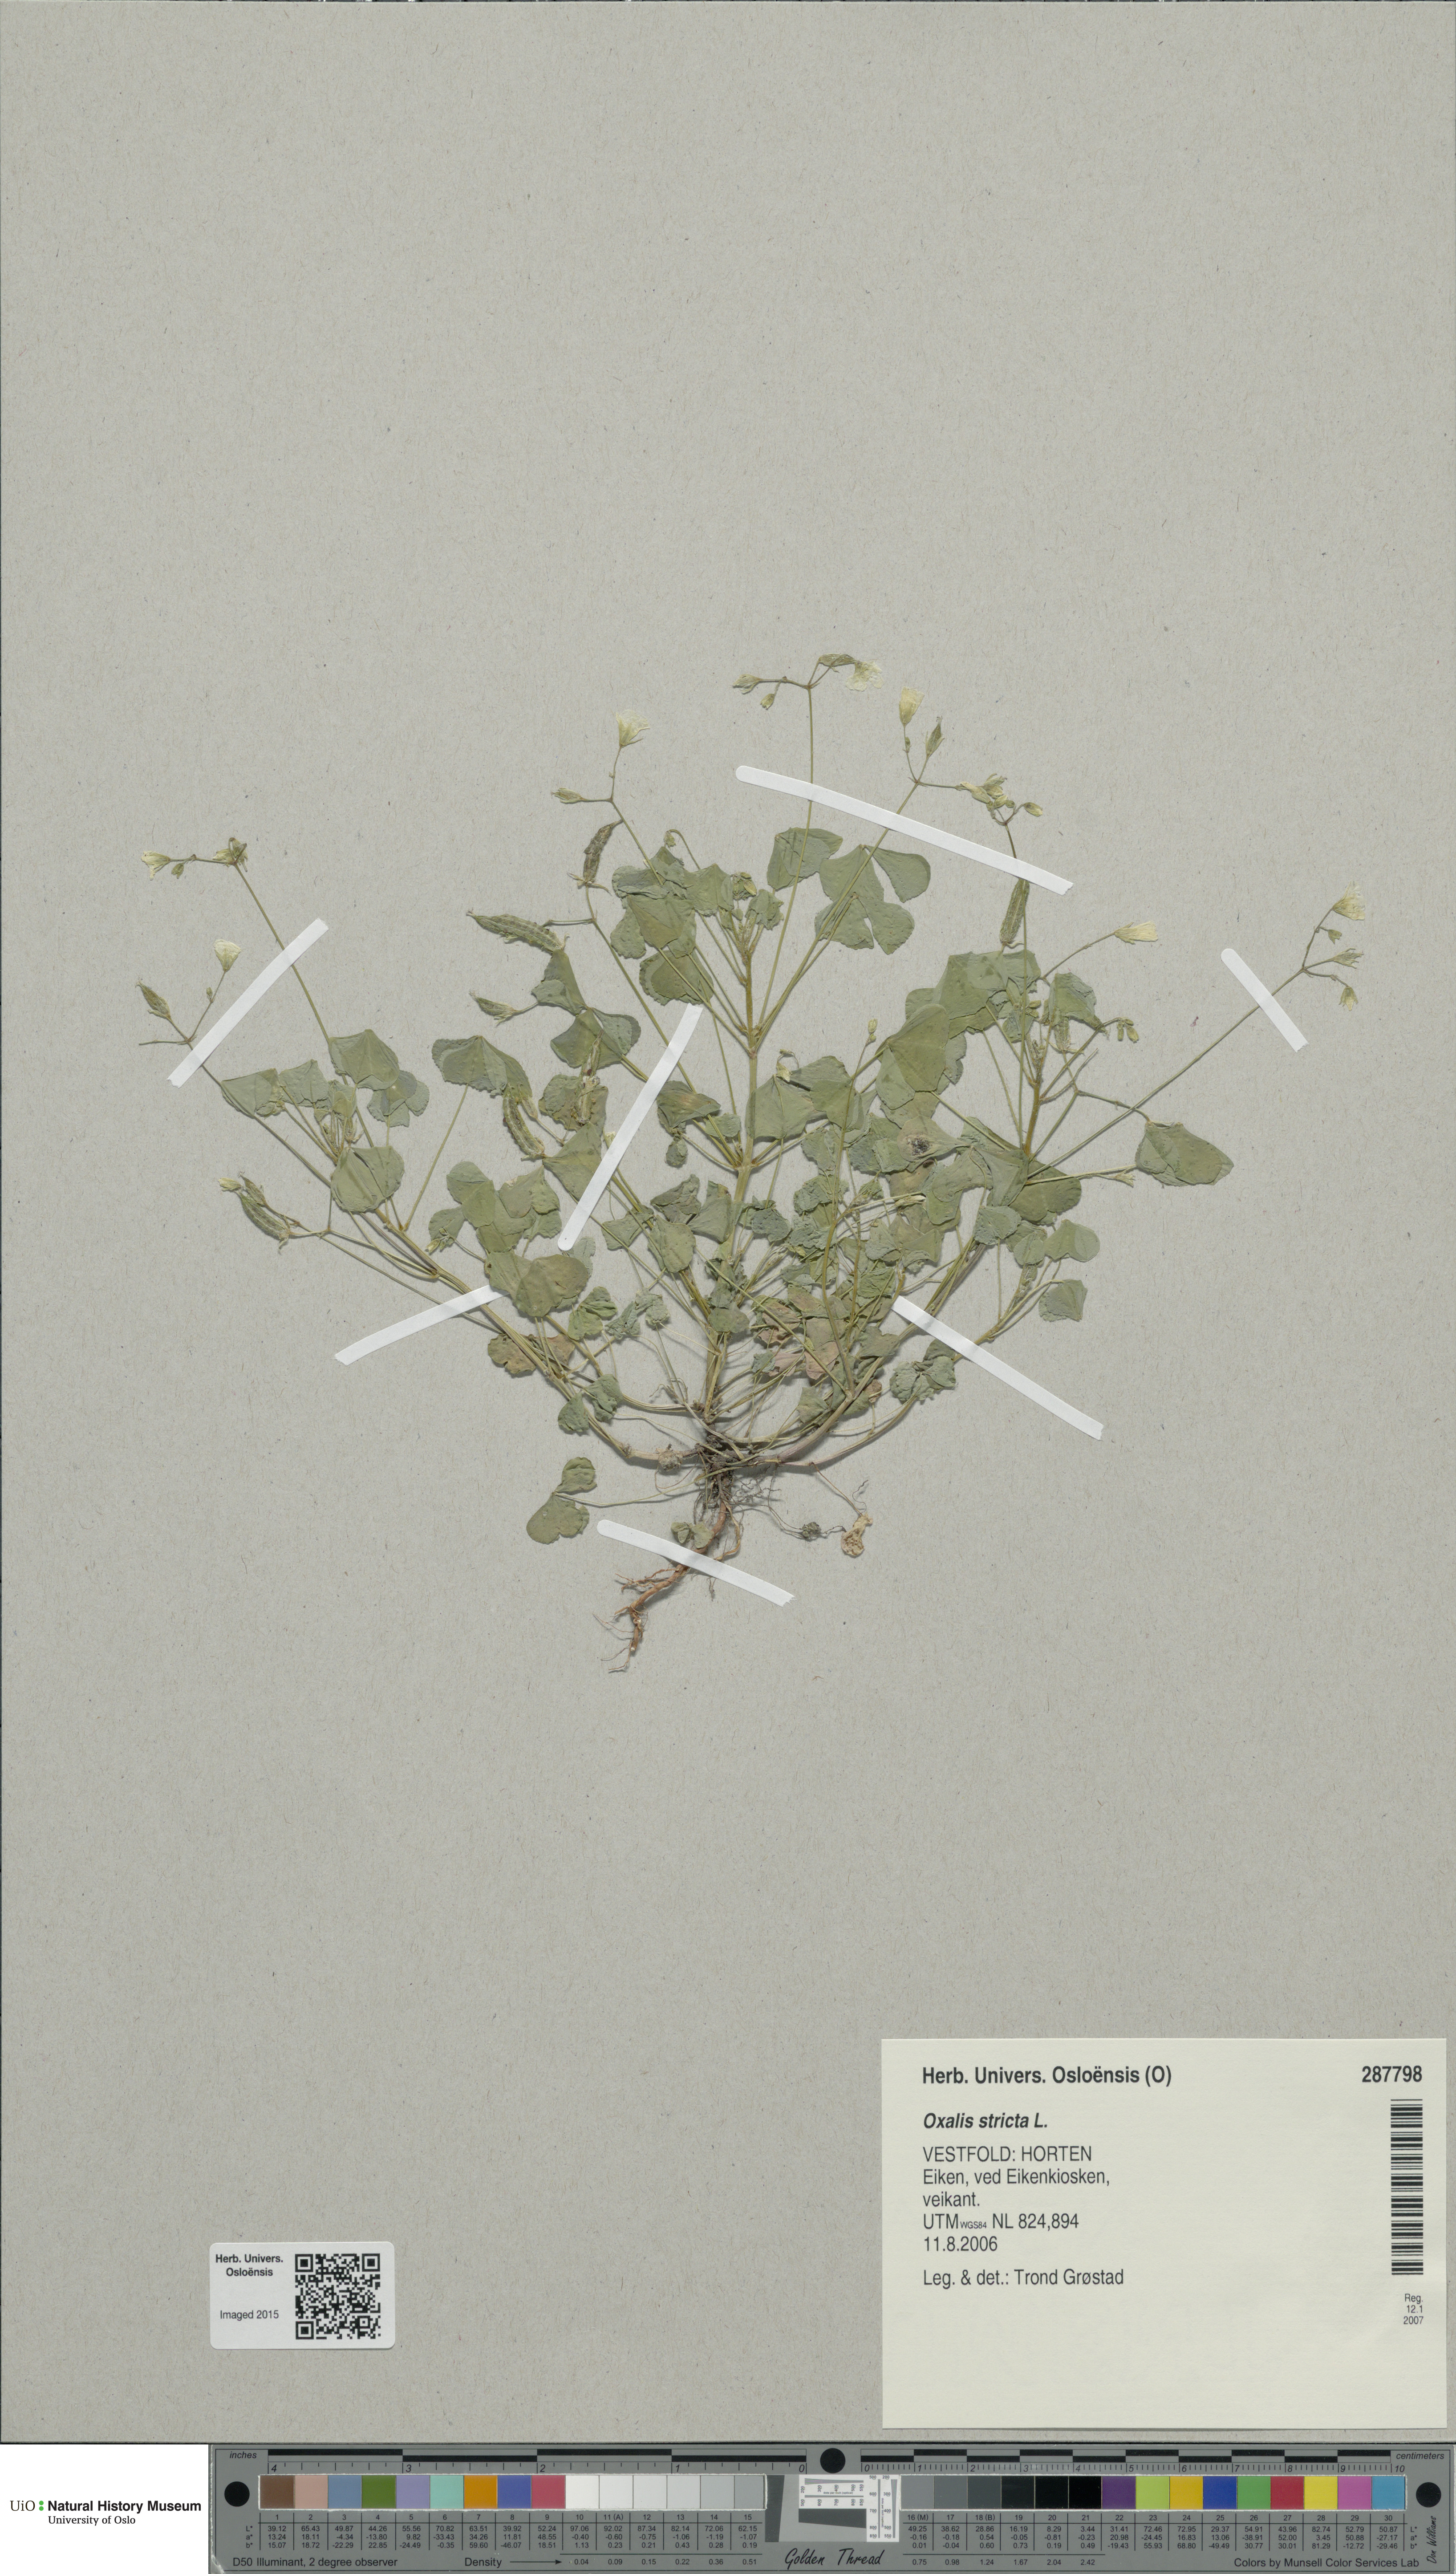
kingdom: Plantae
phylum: Tracheophyta
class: Magnoliopsida
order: Oxalidales
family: Oxalidaceae
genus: Oxalis
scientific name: Oxalis dillenii
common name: Sussex yellow-sorrel
